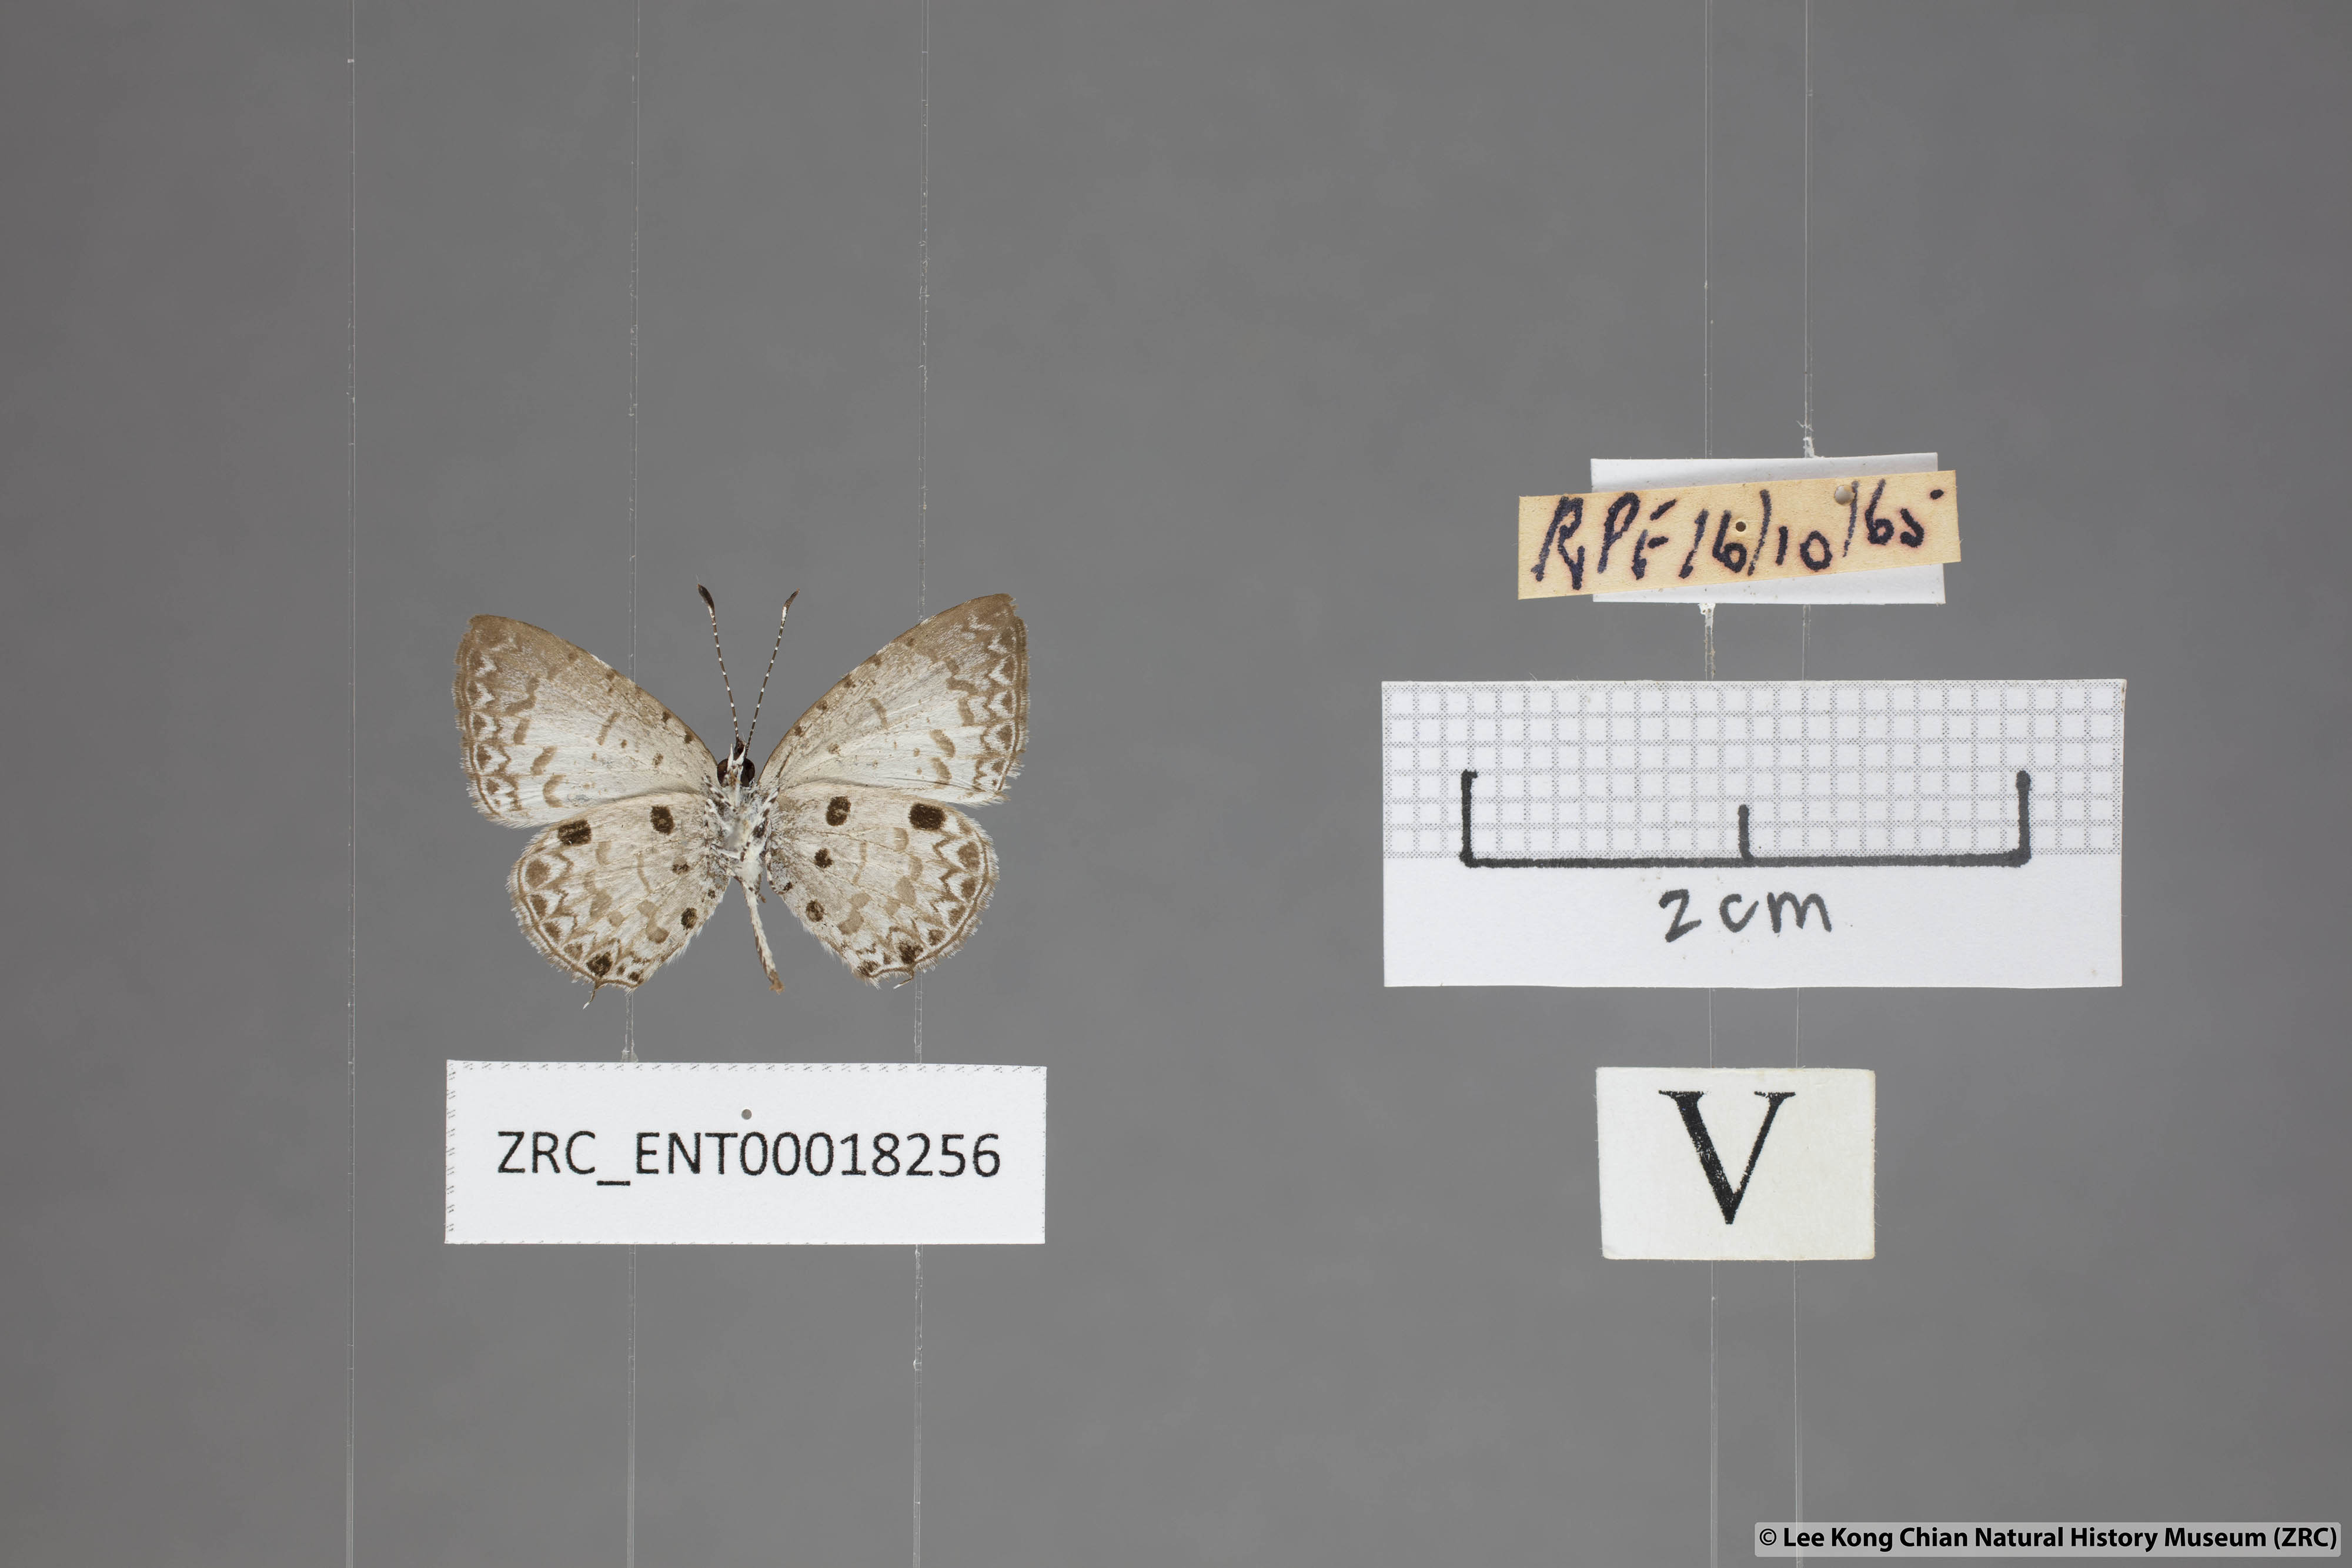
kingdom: Animalia
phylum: Arthropoda
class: Insecta
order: Lepidoptera
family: Lycaenidae
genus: Megisba
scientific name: Megisba malaya
